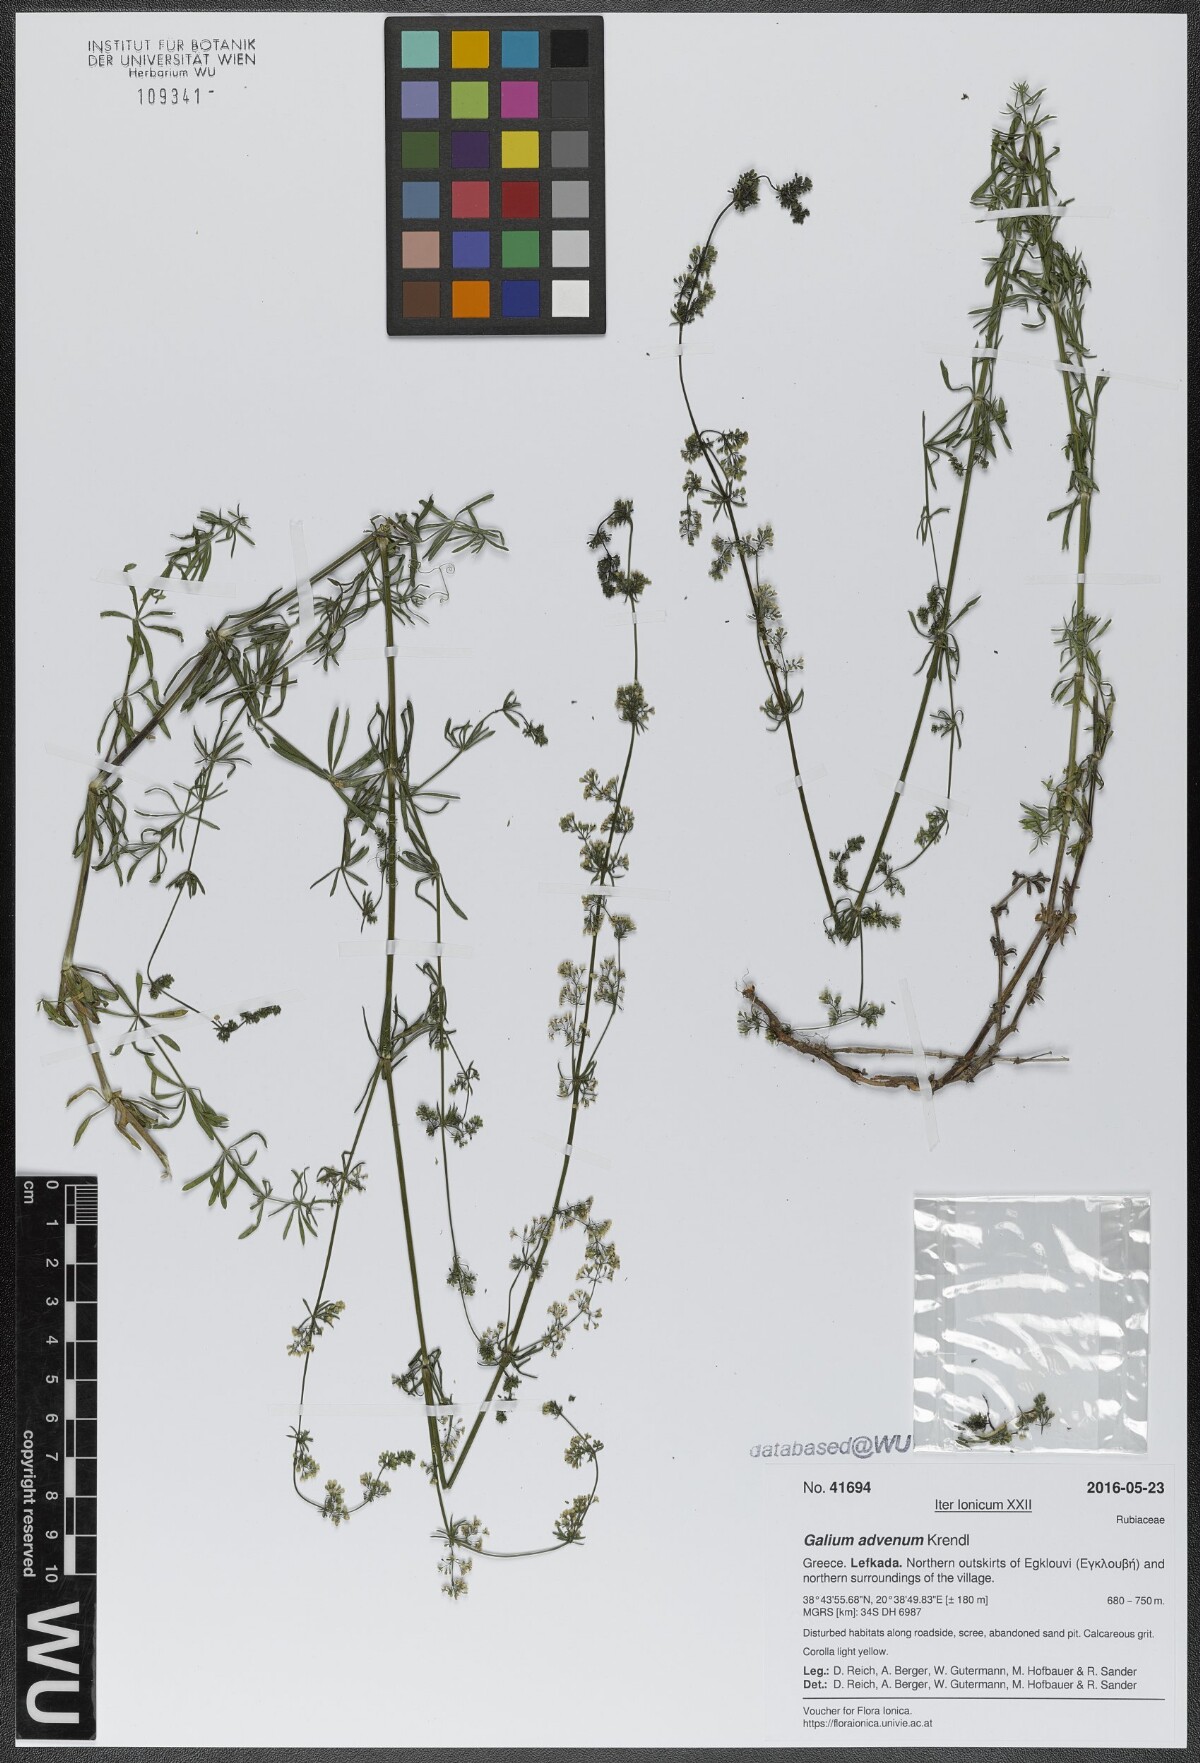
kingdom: Plantae
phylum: Tracheophyta
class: Magnoliopsida
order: Gentianales
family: Rubiaceae
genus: Galium
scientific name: Galium advenum
